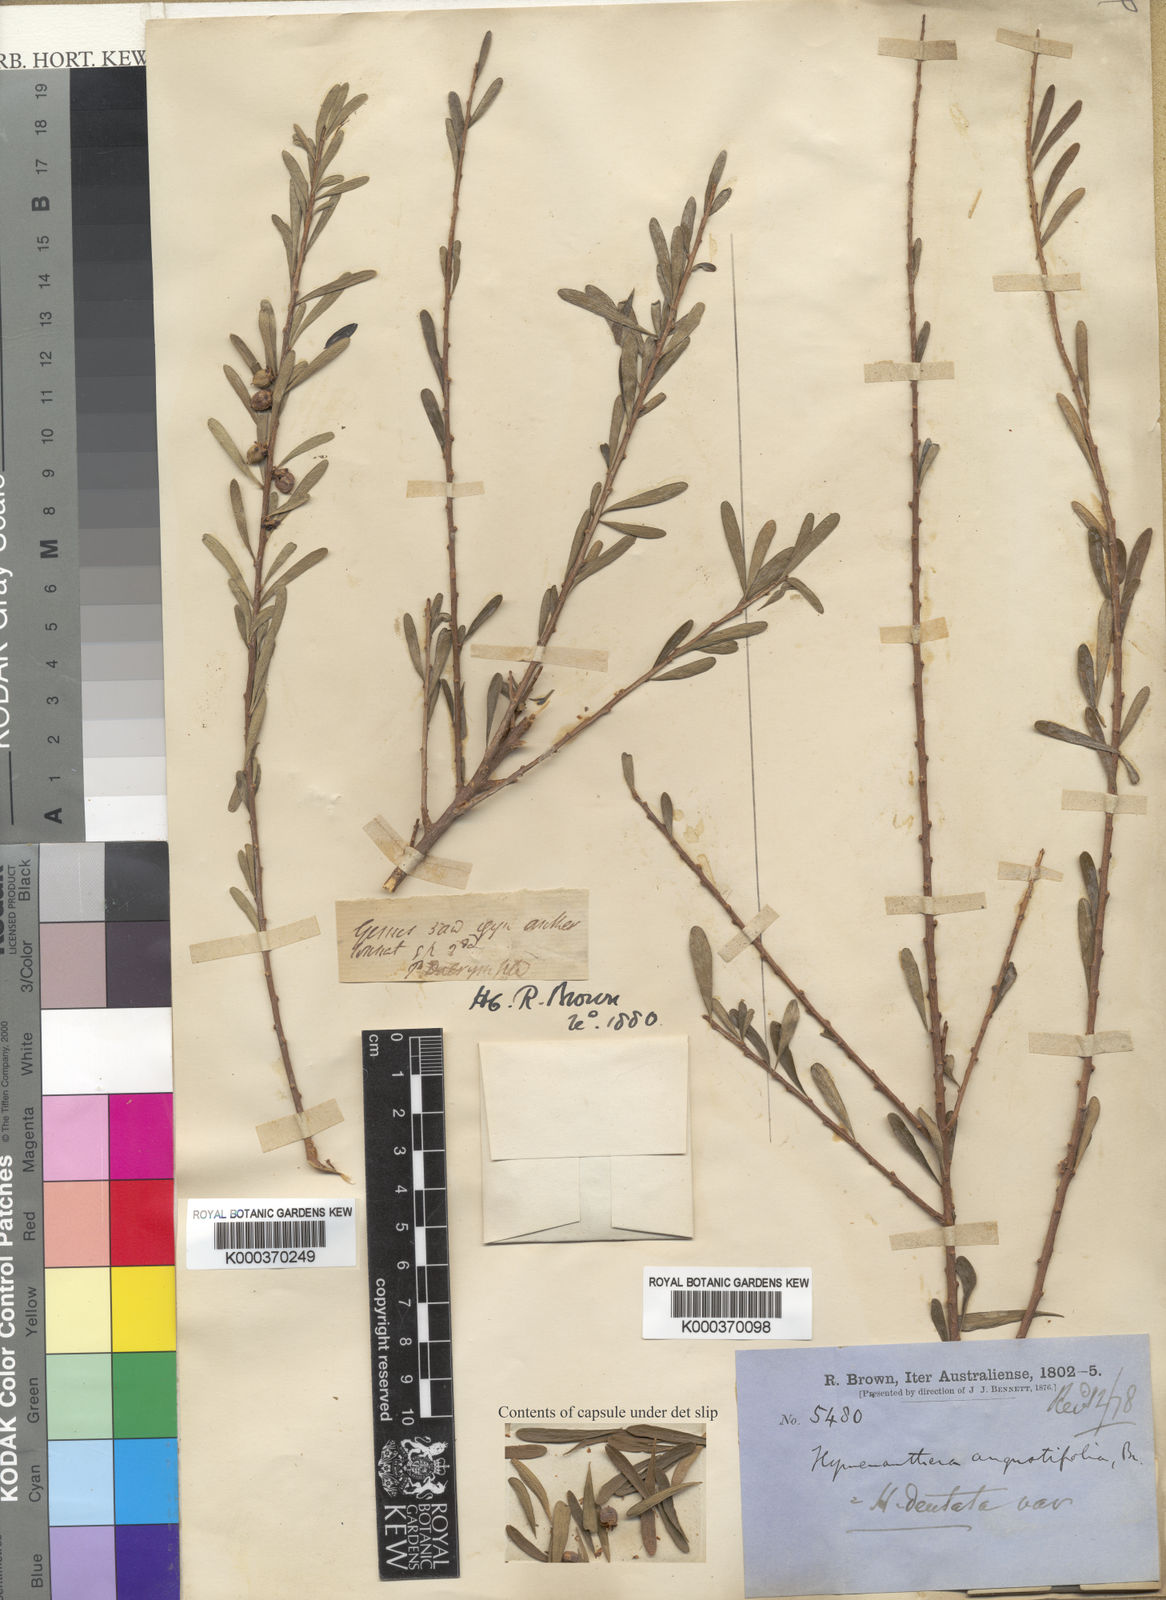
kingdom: Plantae
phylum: Tracheophyta
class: Magnoliopsida
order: Malpighiales
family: Violaceae
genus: Melicytus
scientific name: Melicytus angustifolius
